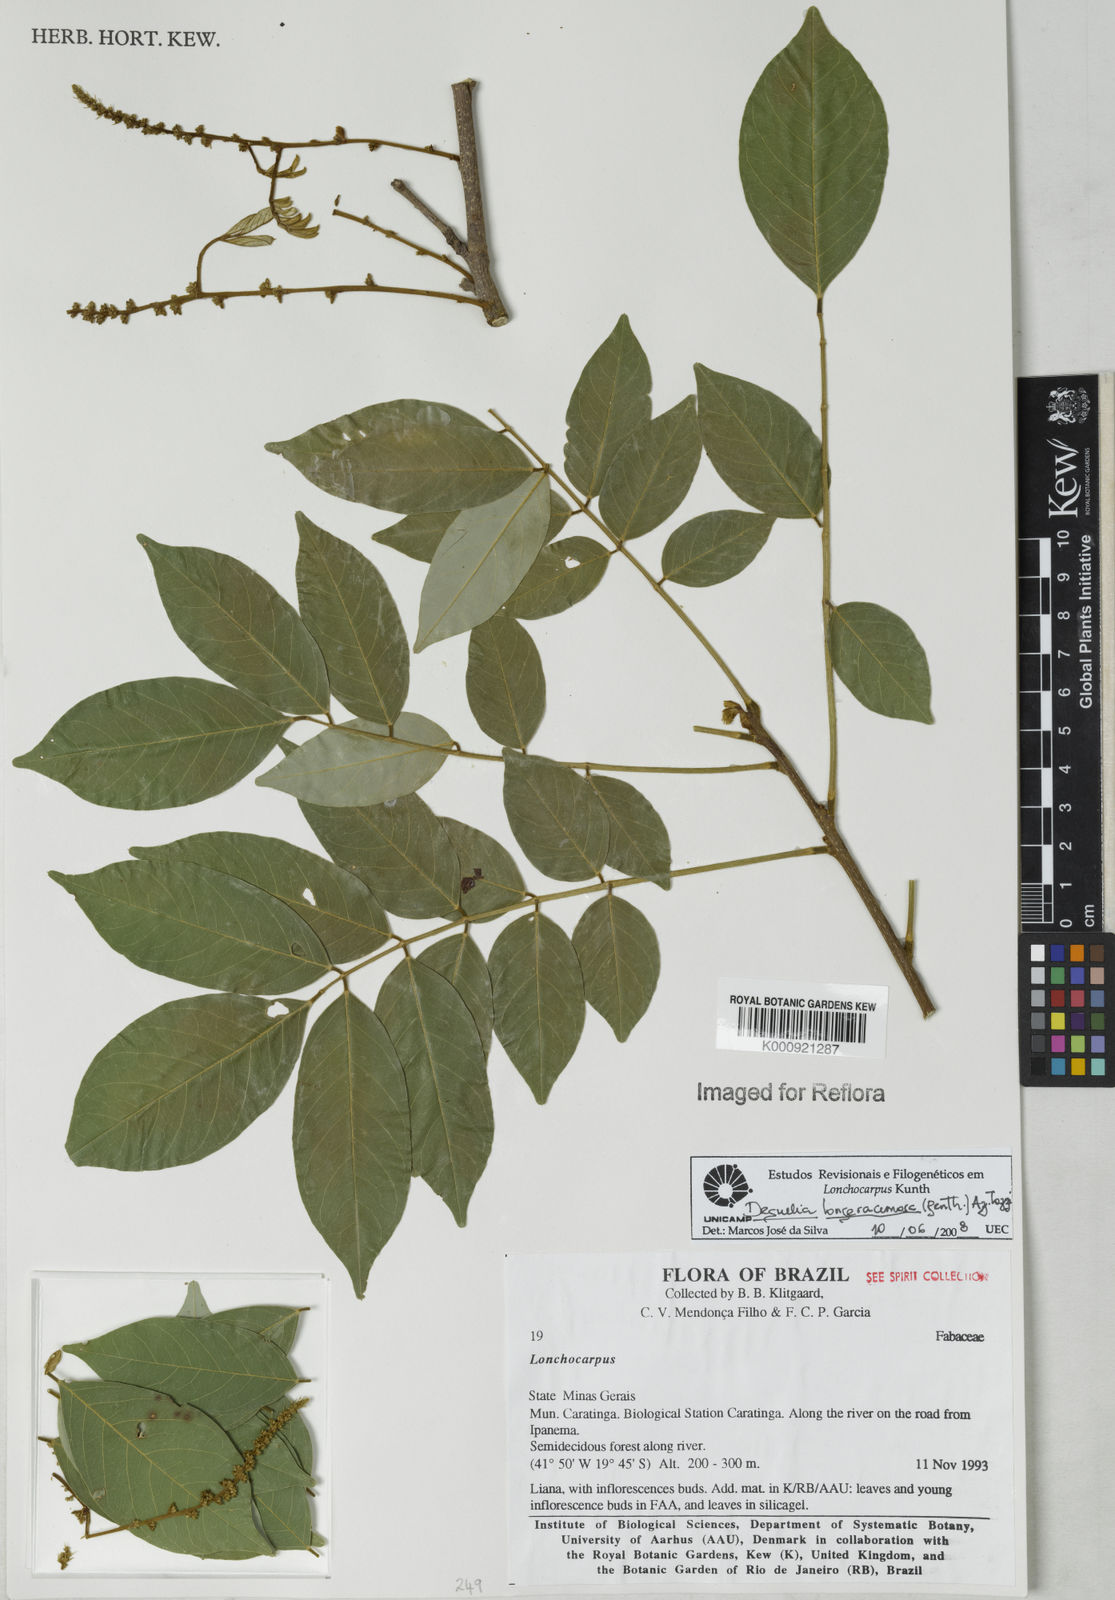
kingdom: Plantae
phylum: Tracheophyta
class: Magnoliopsida
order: Fabales
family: Fabaceae
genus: Deguelia
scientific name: Deguelia
